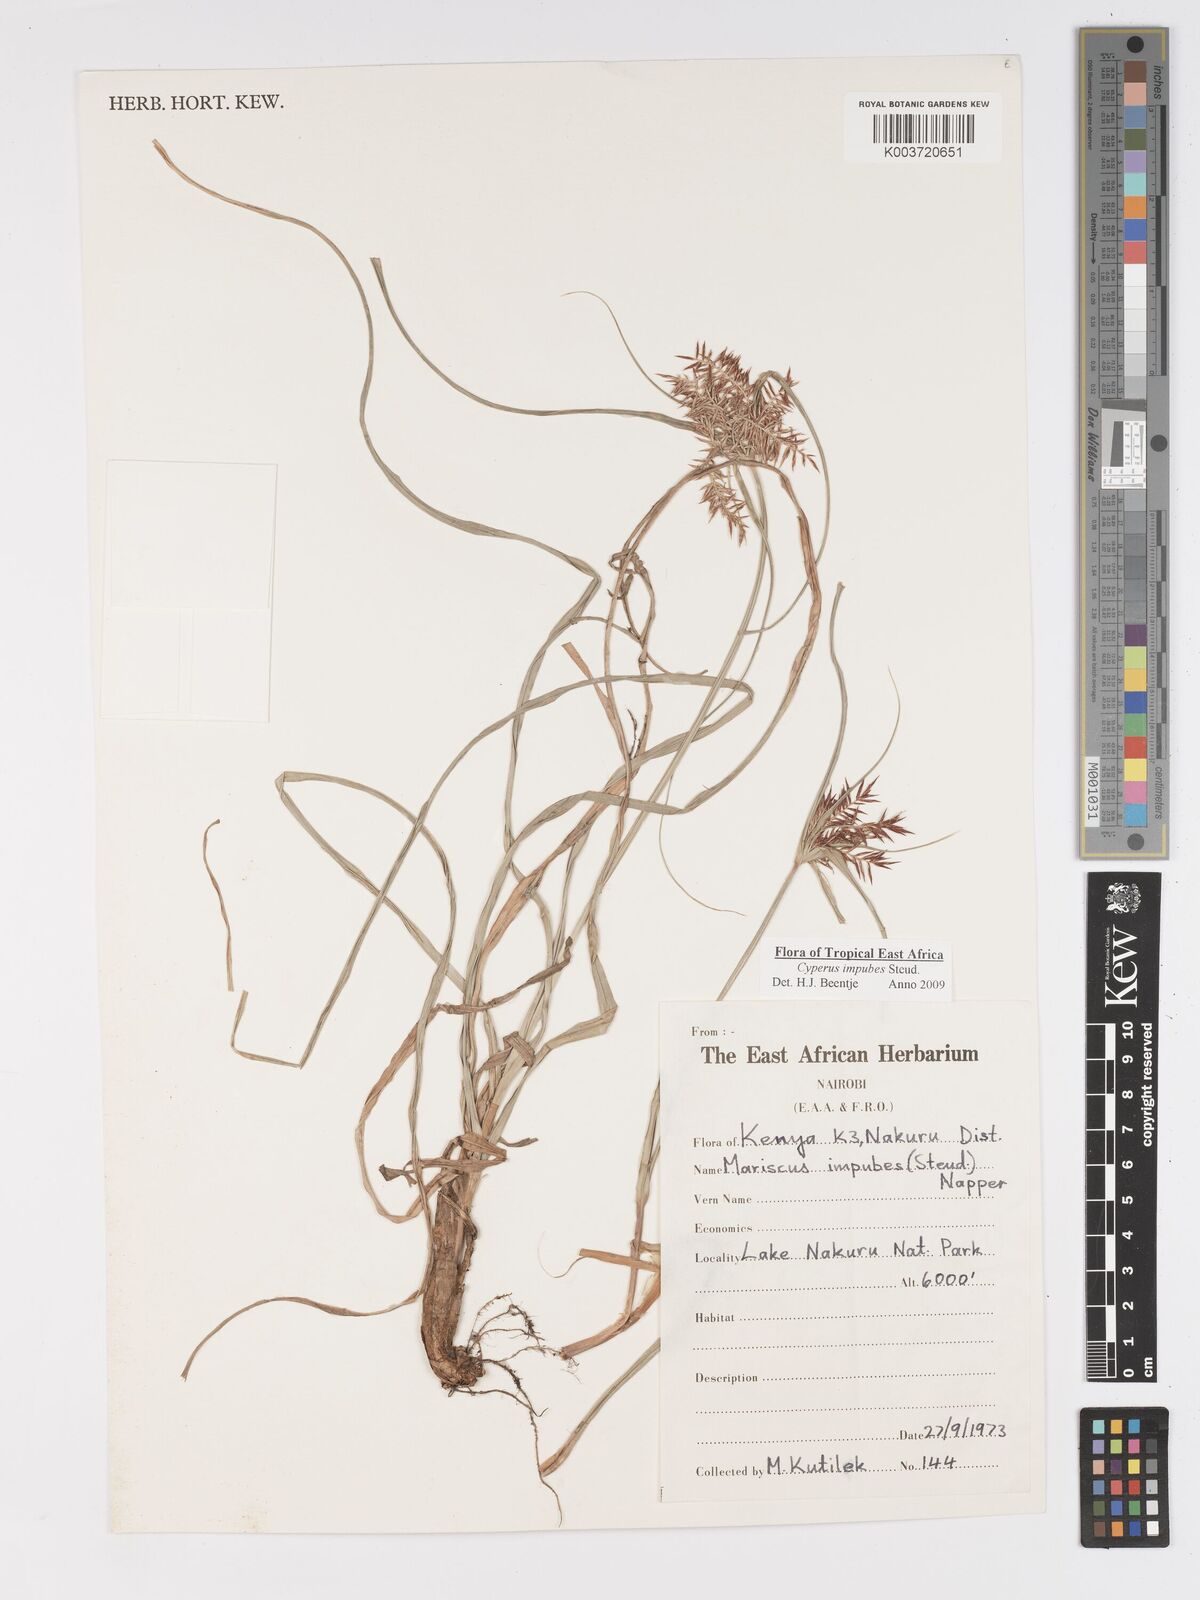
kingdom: Plantae
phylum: Tracheophyta
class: Liliopsida
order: Poales
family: Cyperaceae
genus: Cyperus
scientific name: Cyperus impubes
